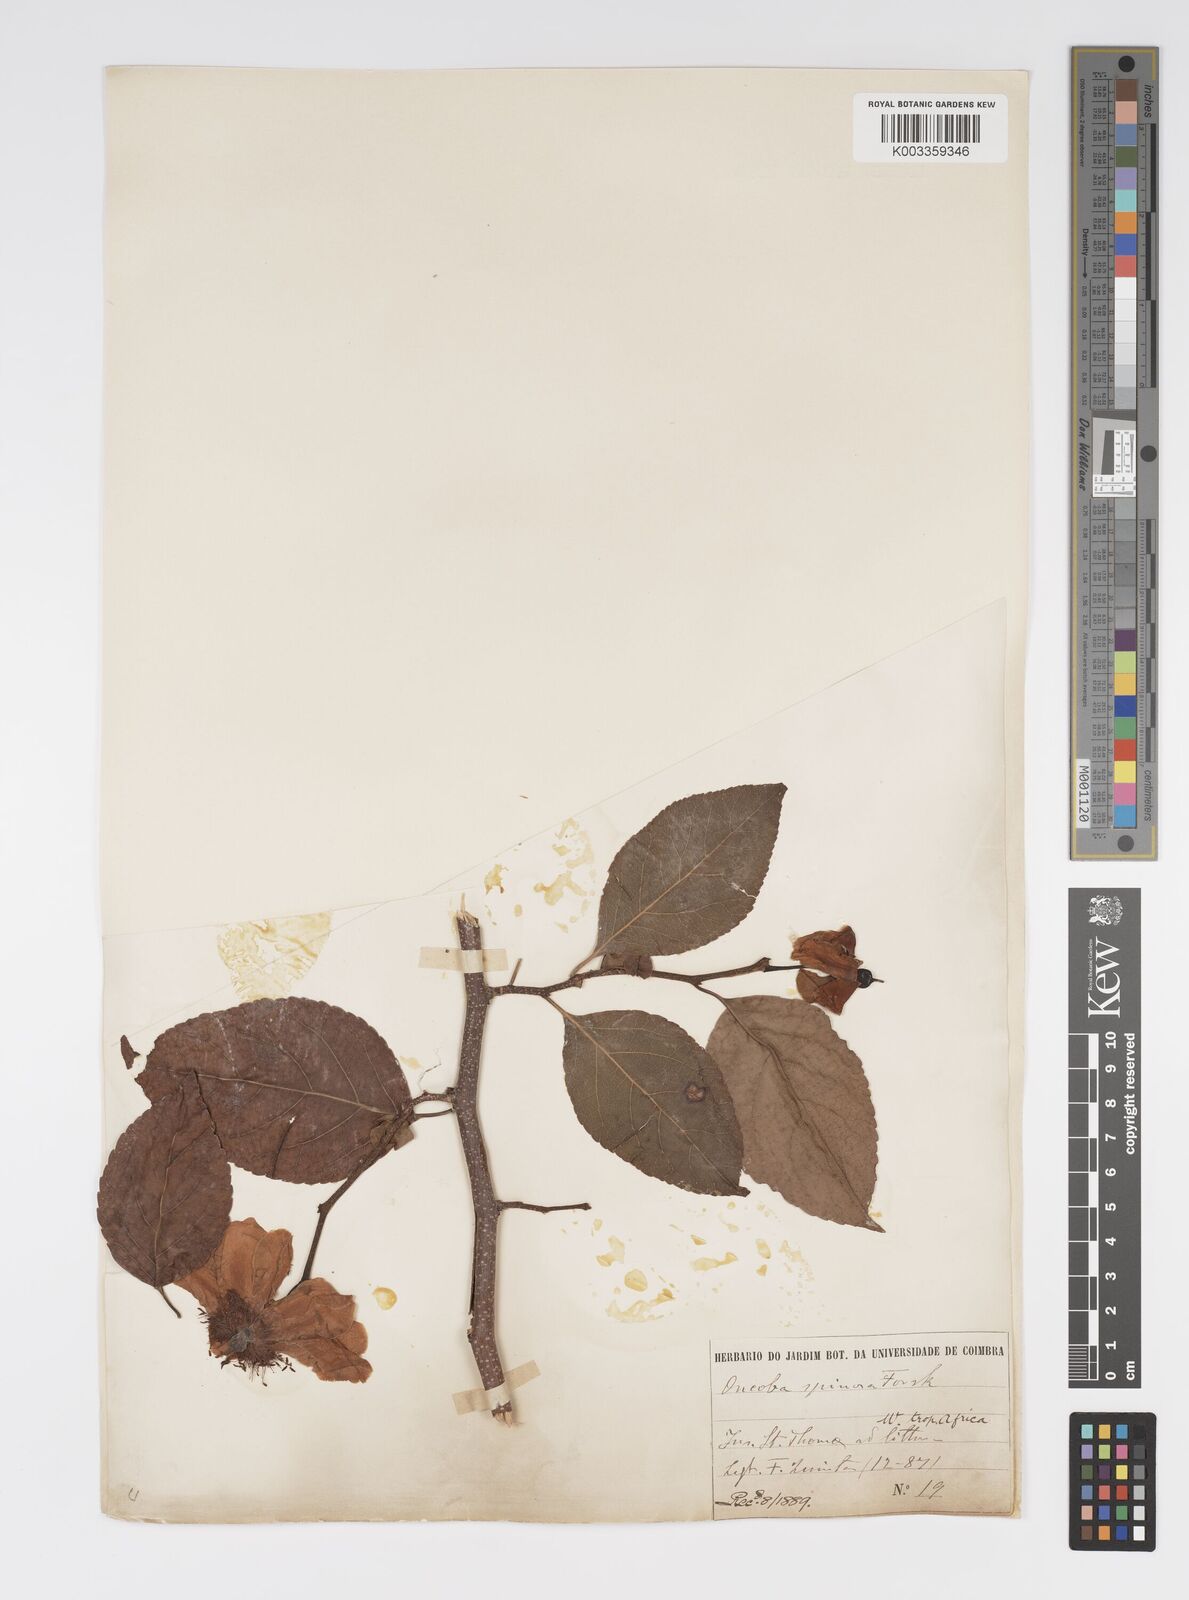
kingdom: Plantae
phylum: Tracheophyta
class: Magnoliopsida
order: Malpighiales
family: Salicaceae
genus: Oncoba
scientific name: Oncoba spinosa
